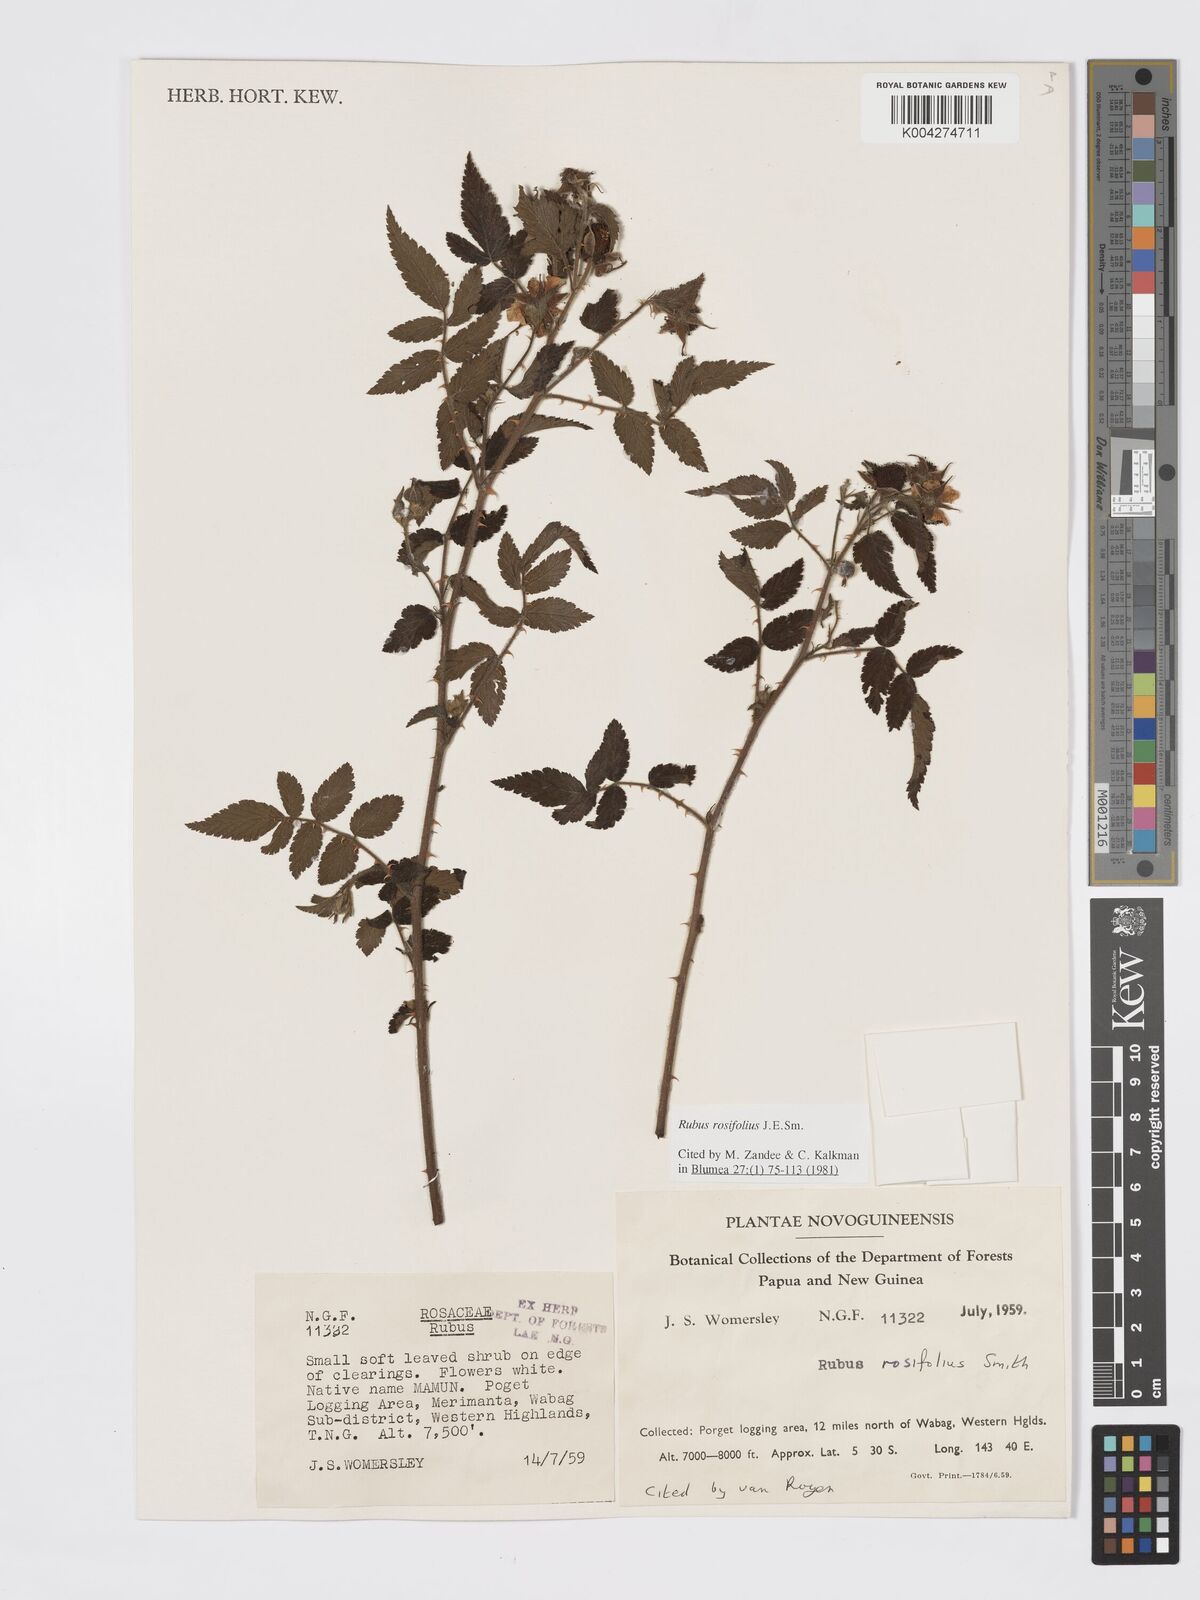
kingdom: Plantae
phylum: Tracheophyta
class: Magnoliopsida
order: Rosales
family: Rosaceae
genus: Rubus
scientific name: Rubus
